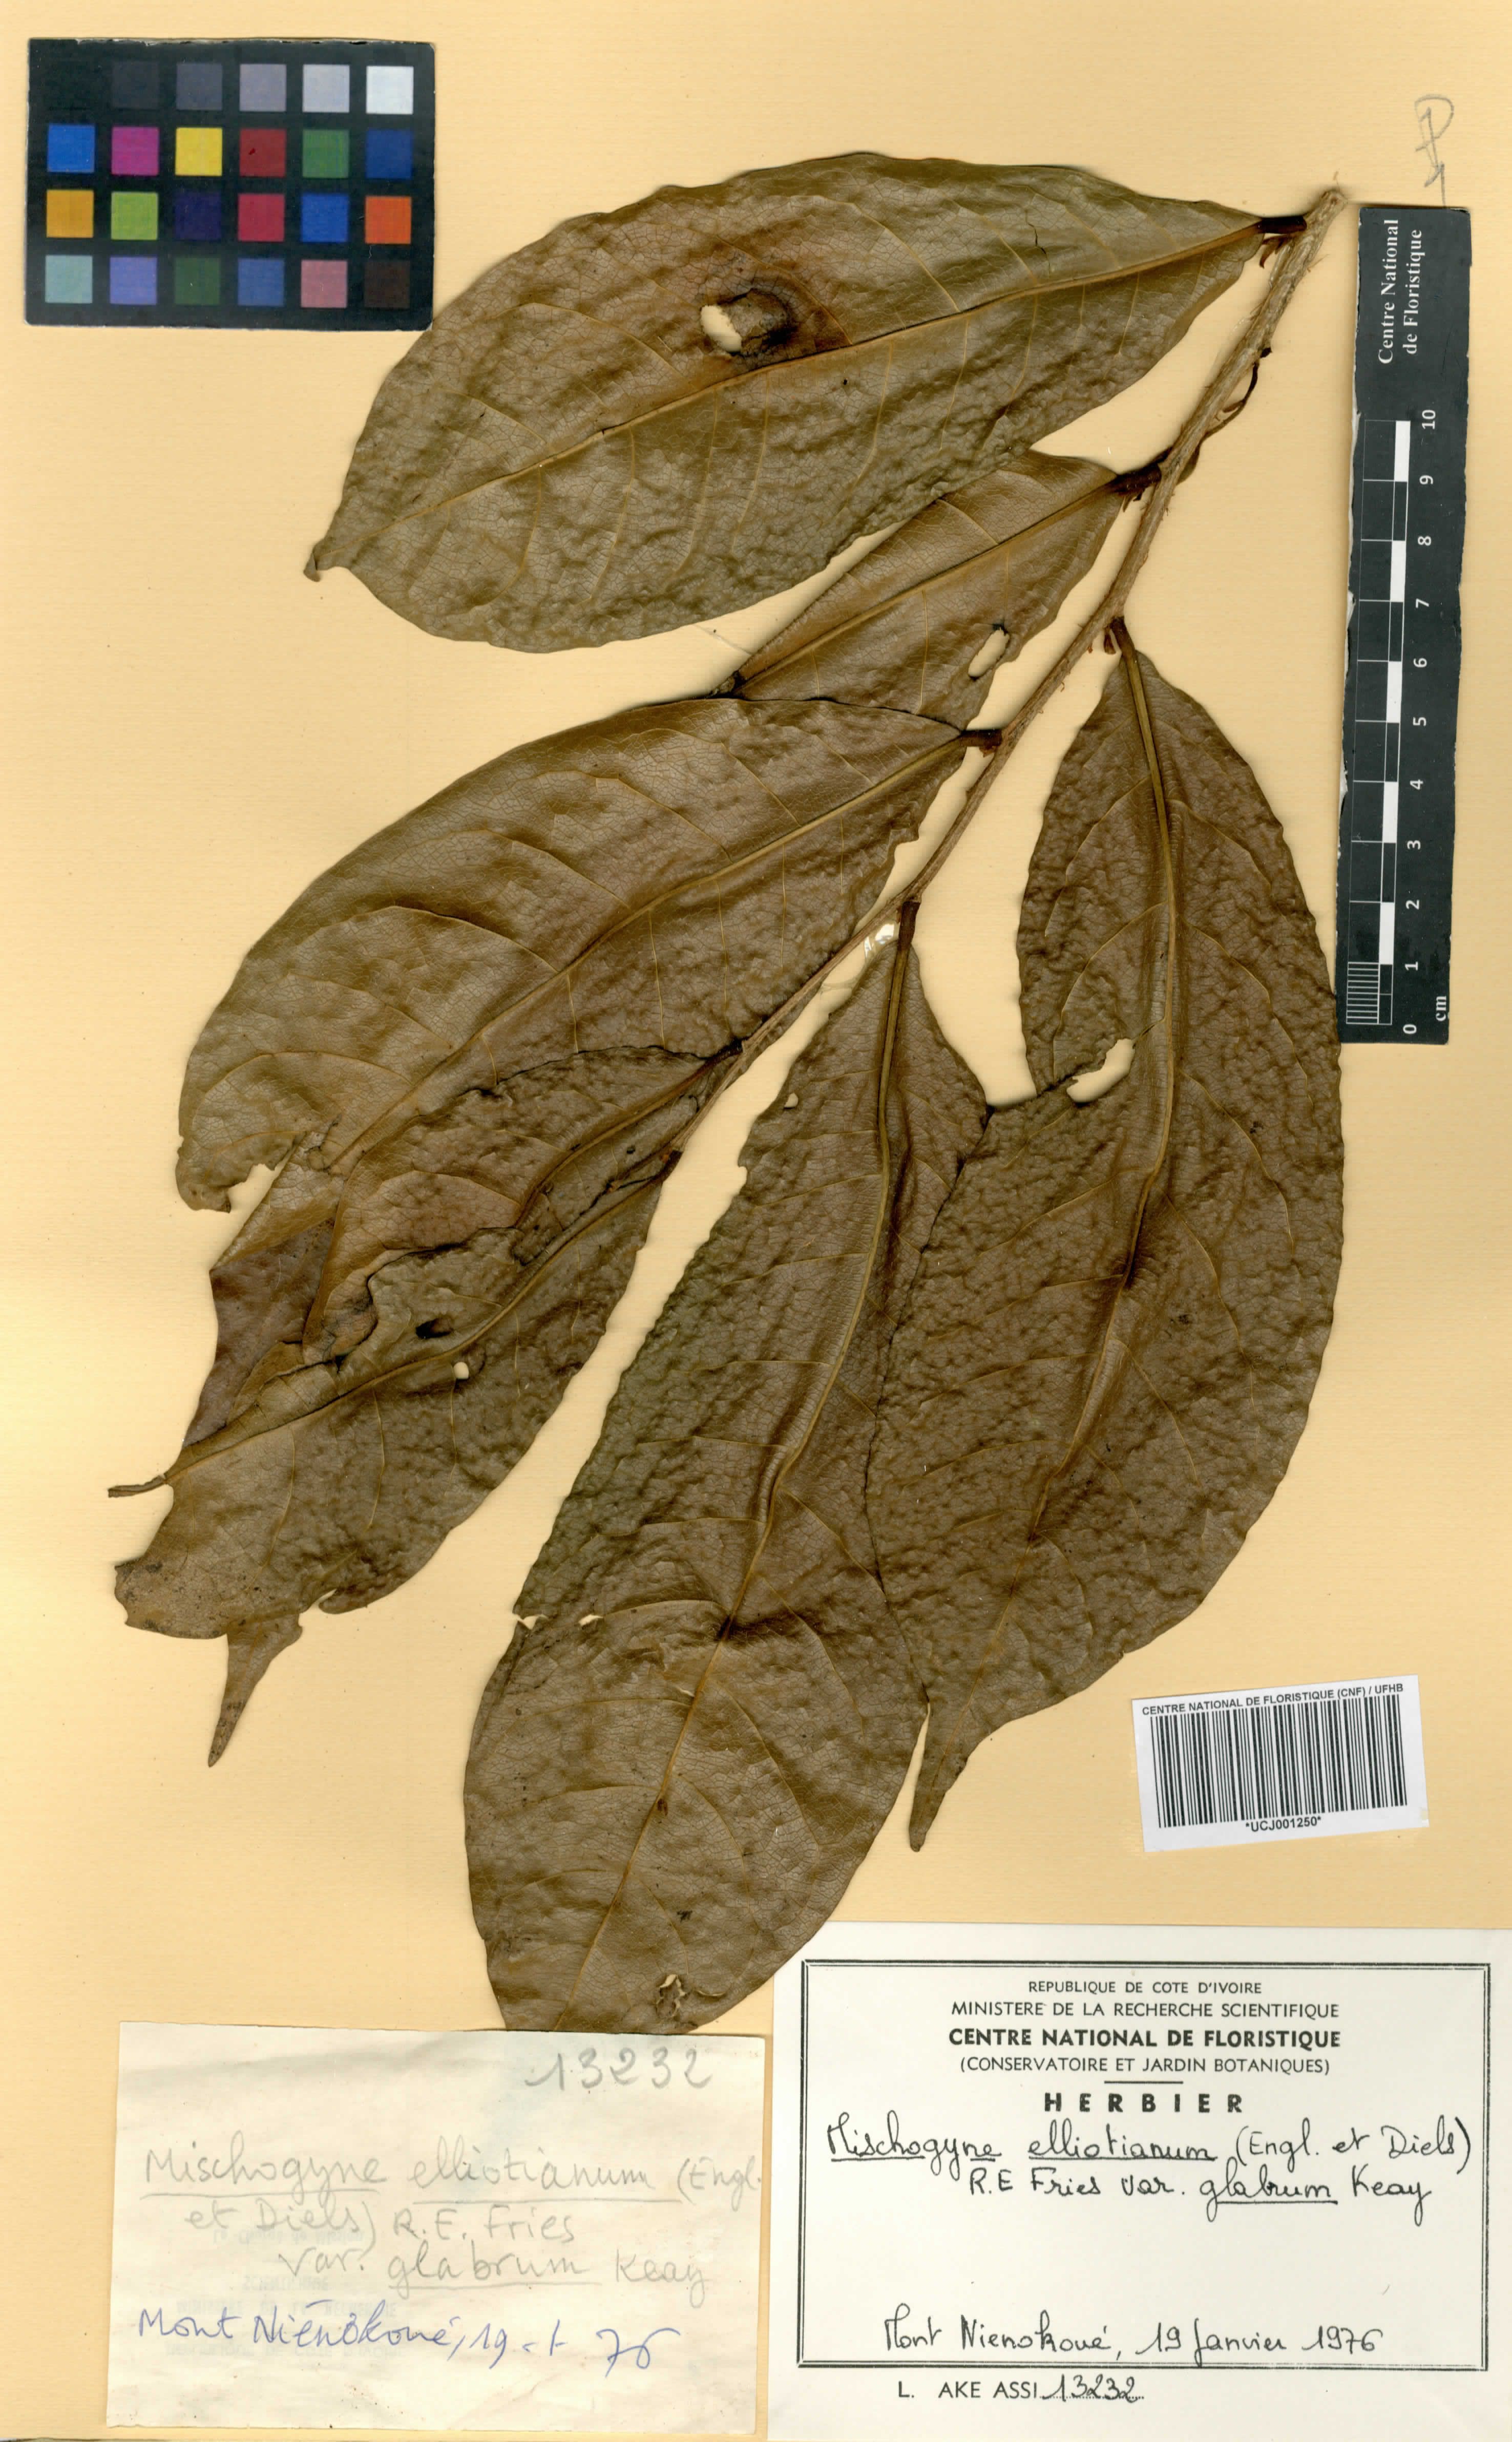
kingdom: Plantae
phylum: Tracheophyta
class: Magnoliopsida
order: Magnoliales
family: Annonaceae
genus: Mischogyne
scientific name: Mischogyne elliotianum
